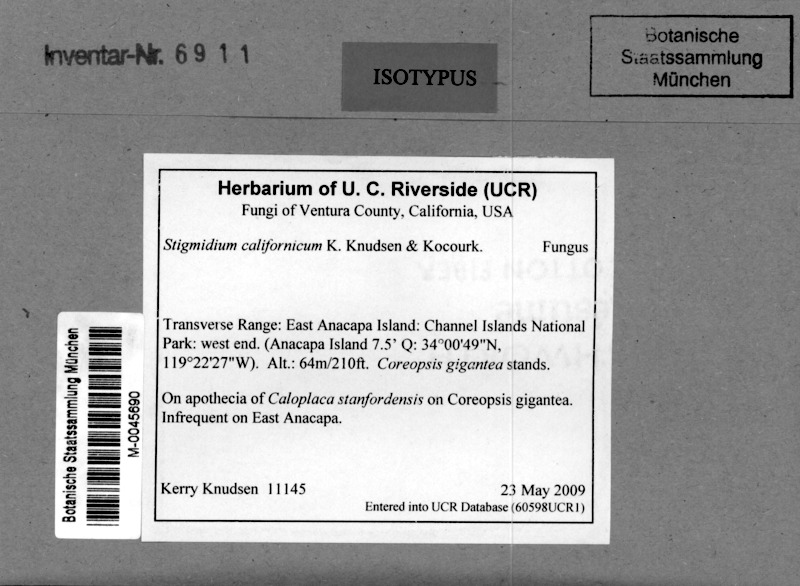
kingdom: Plantae
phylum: Tracheophyta
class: Magnoliopsida
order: Asterales
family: Asteraceae
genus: Coreopsis
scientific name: Coreopsis gigantea
